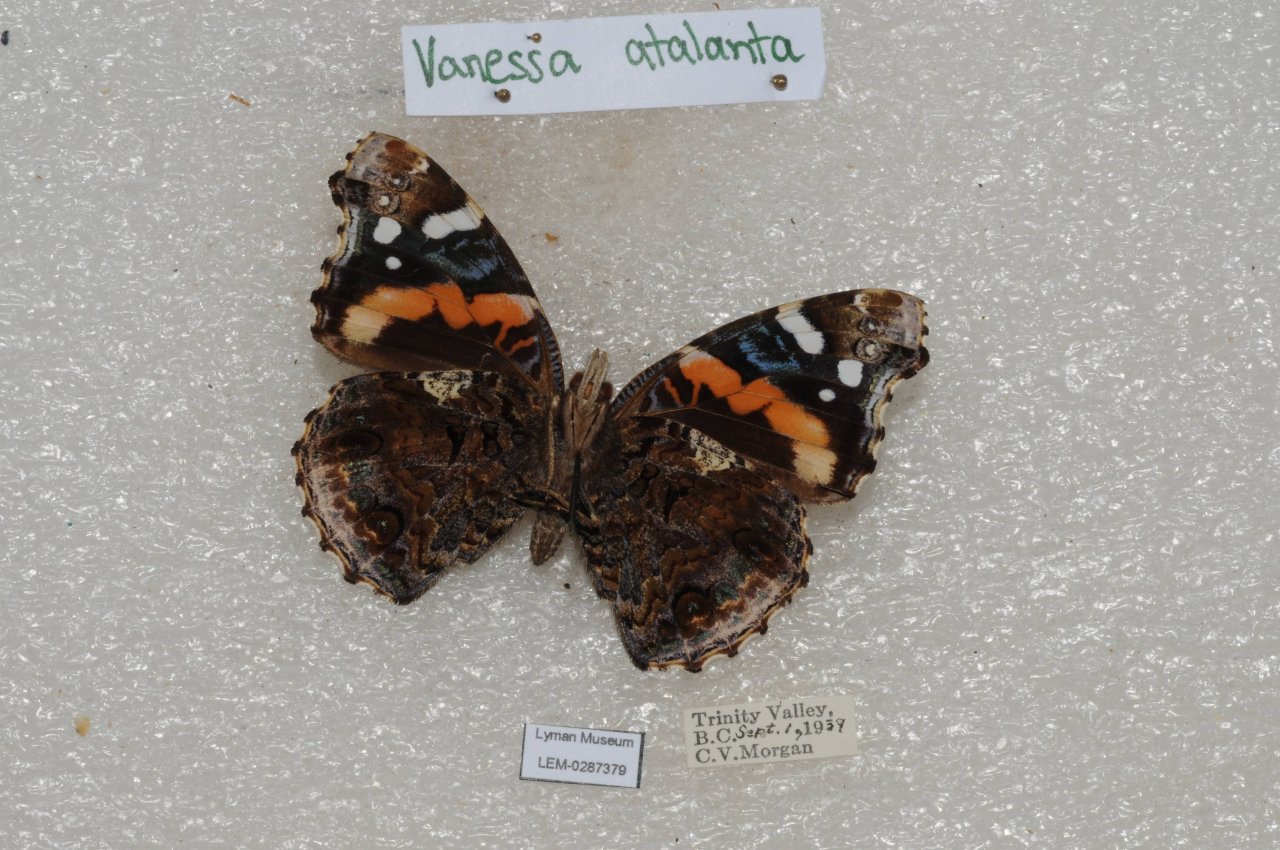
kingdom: Animalia
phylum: Arthropoda
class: Insecta
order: Lepidoptera
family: Nymphalidae
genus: Vanessa
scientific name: Vanessa atalanta
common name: Red Admiral
